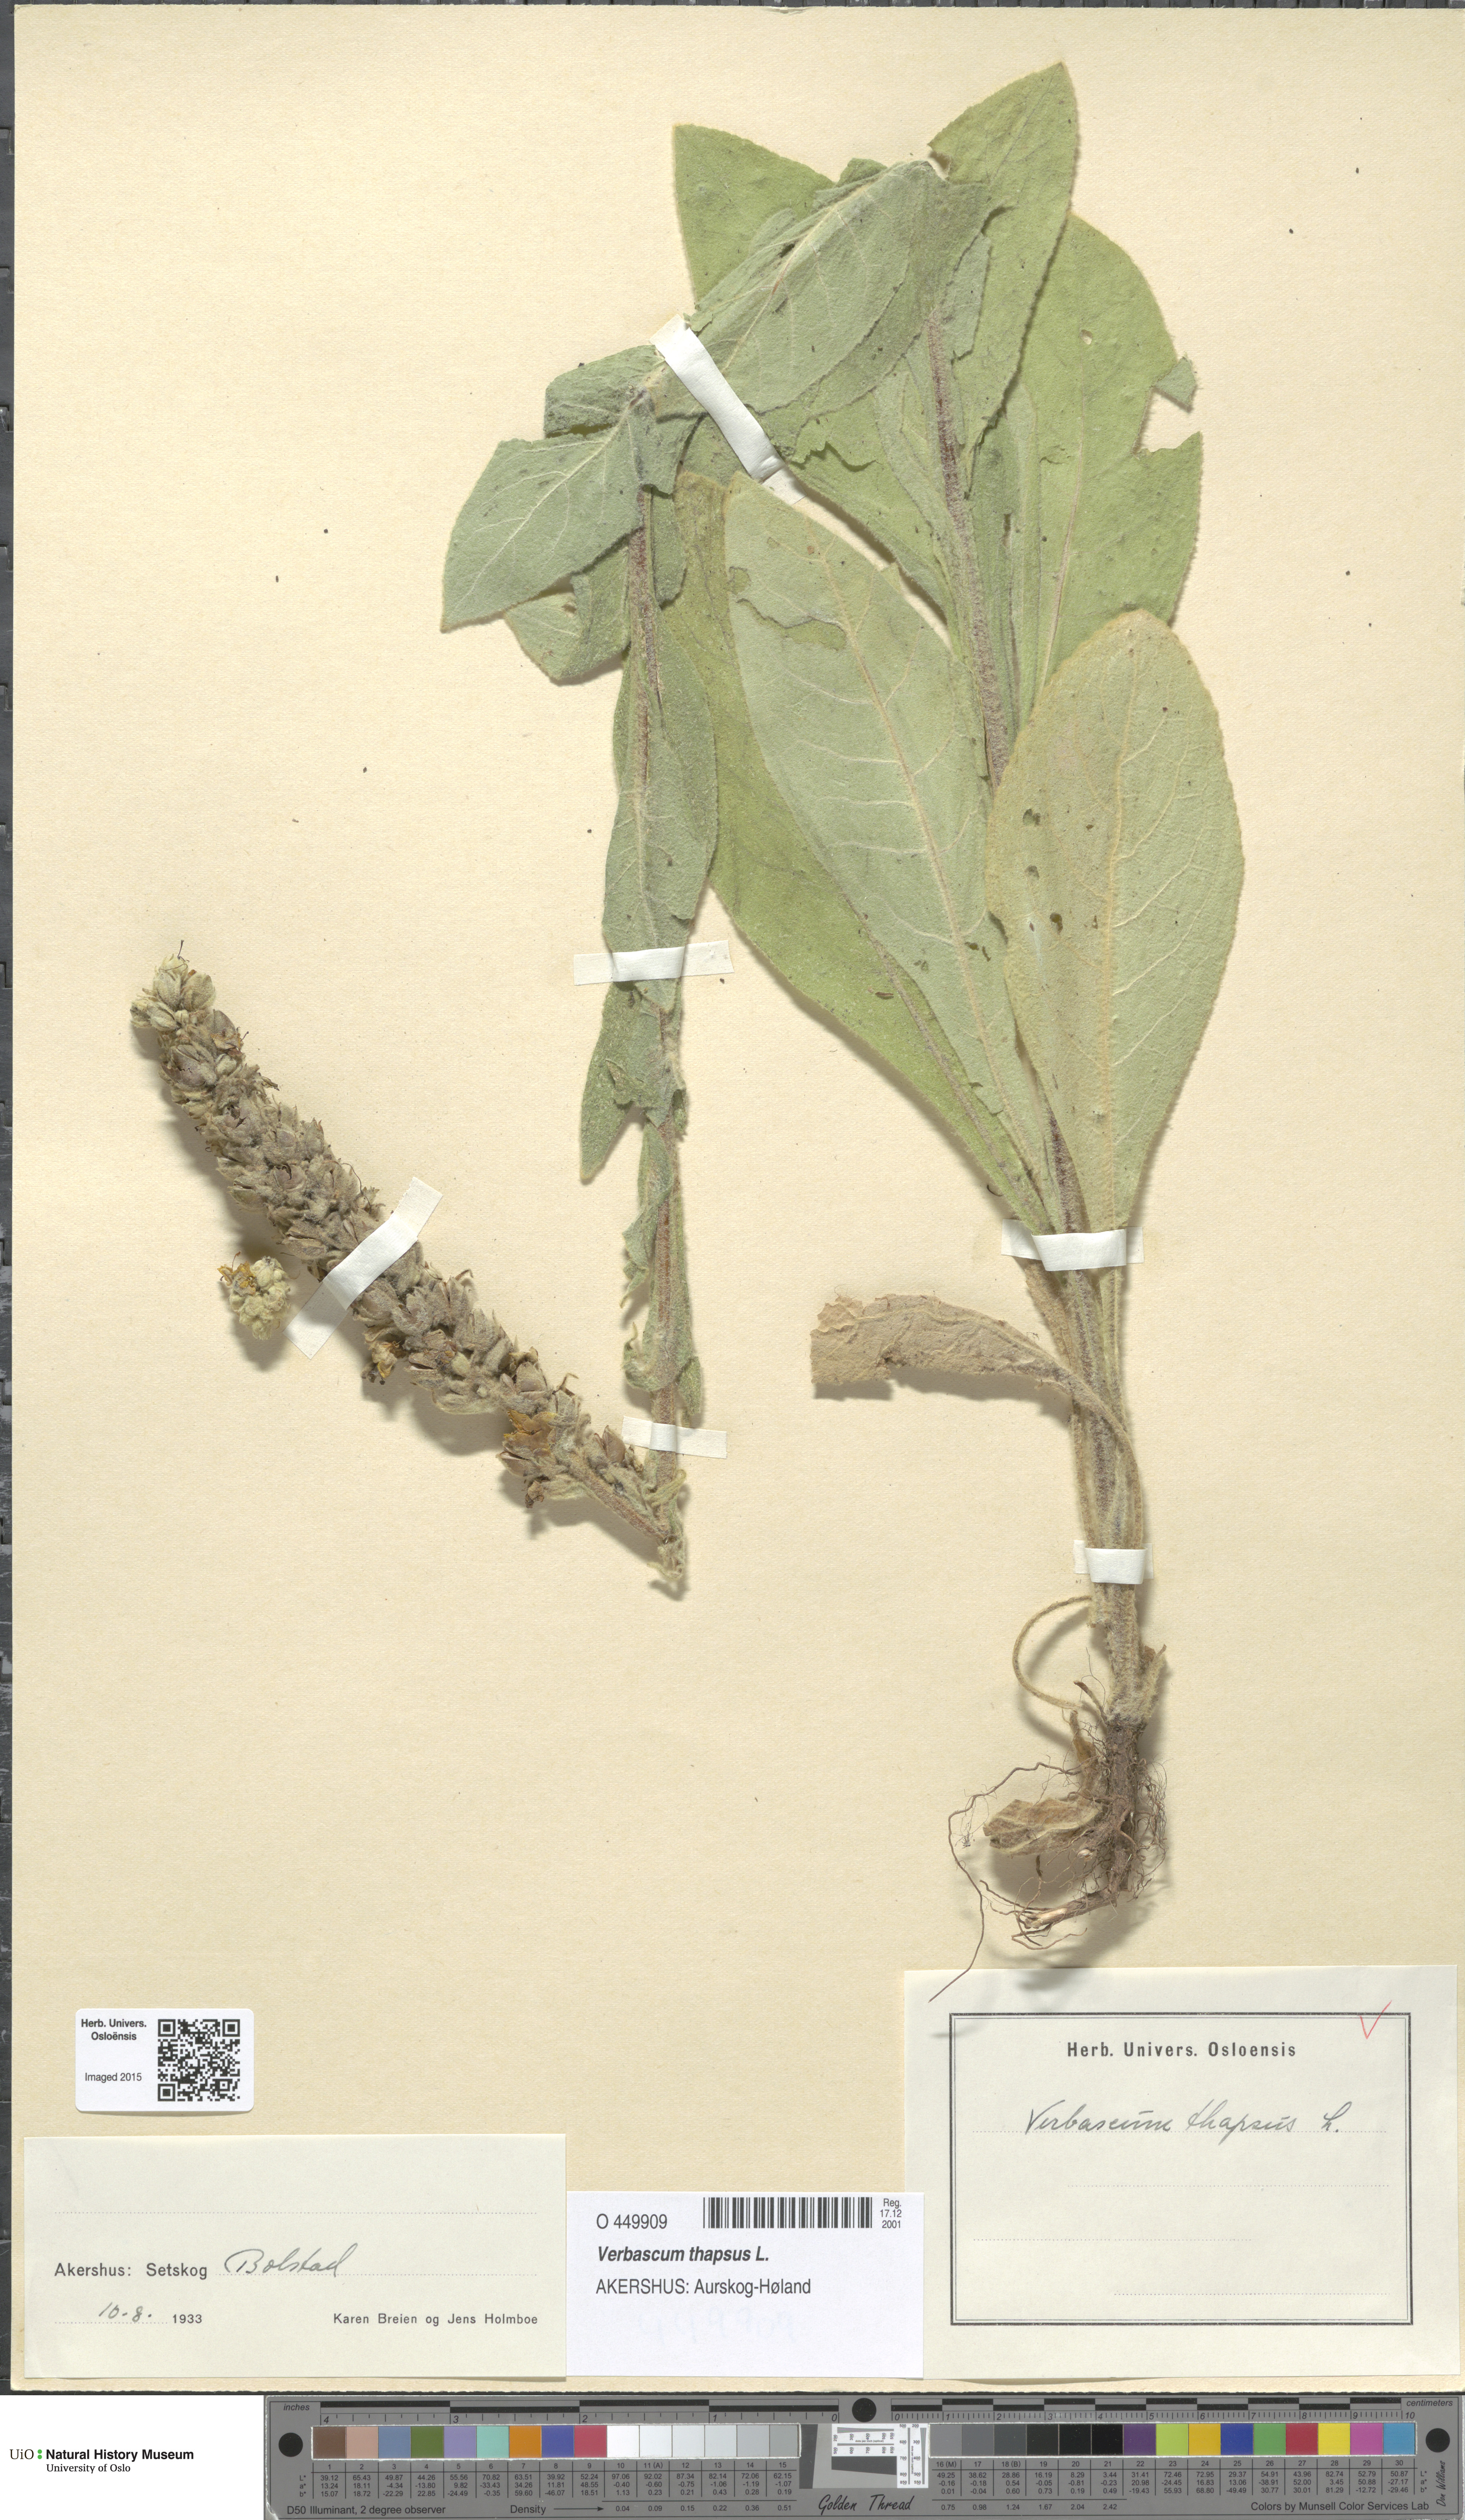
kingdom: Plantae
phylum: Tracheophyta
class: Magnoliopsida
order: Lamiales
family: Scrophulariaceae
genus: Verbascum
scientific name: Verbascum thapsus
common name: Common mullein
